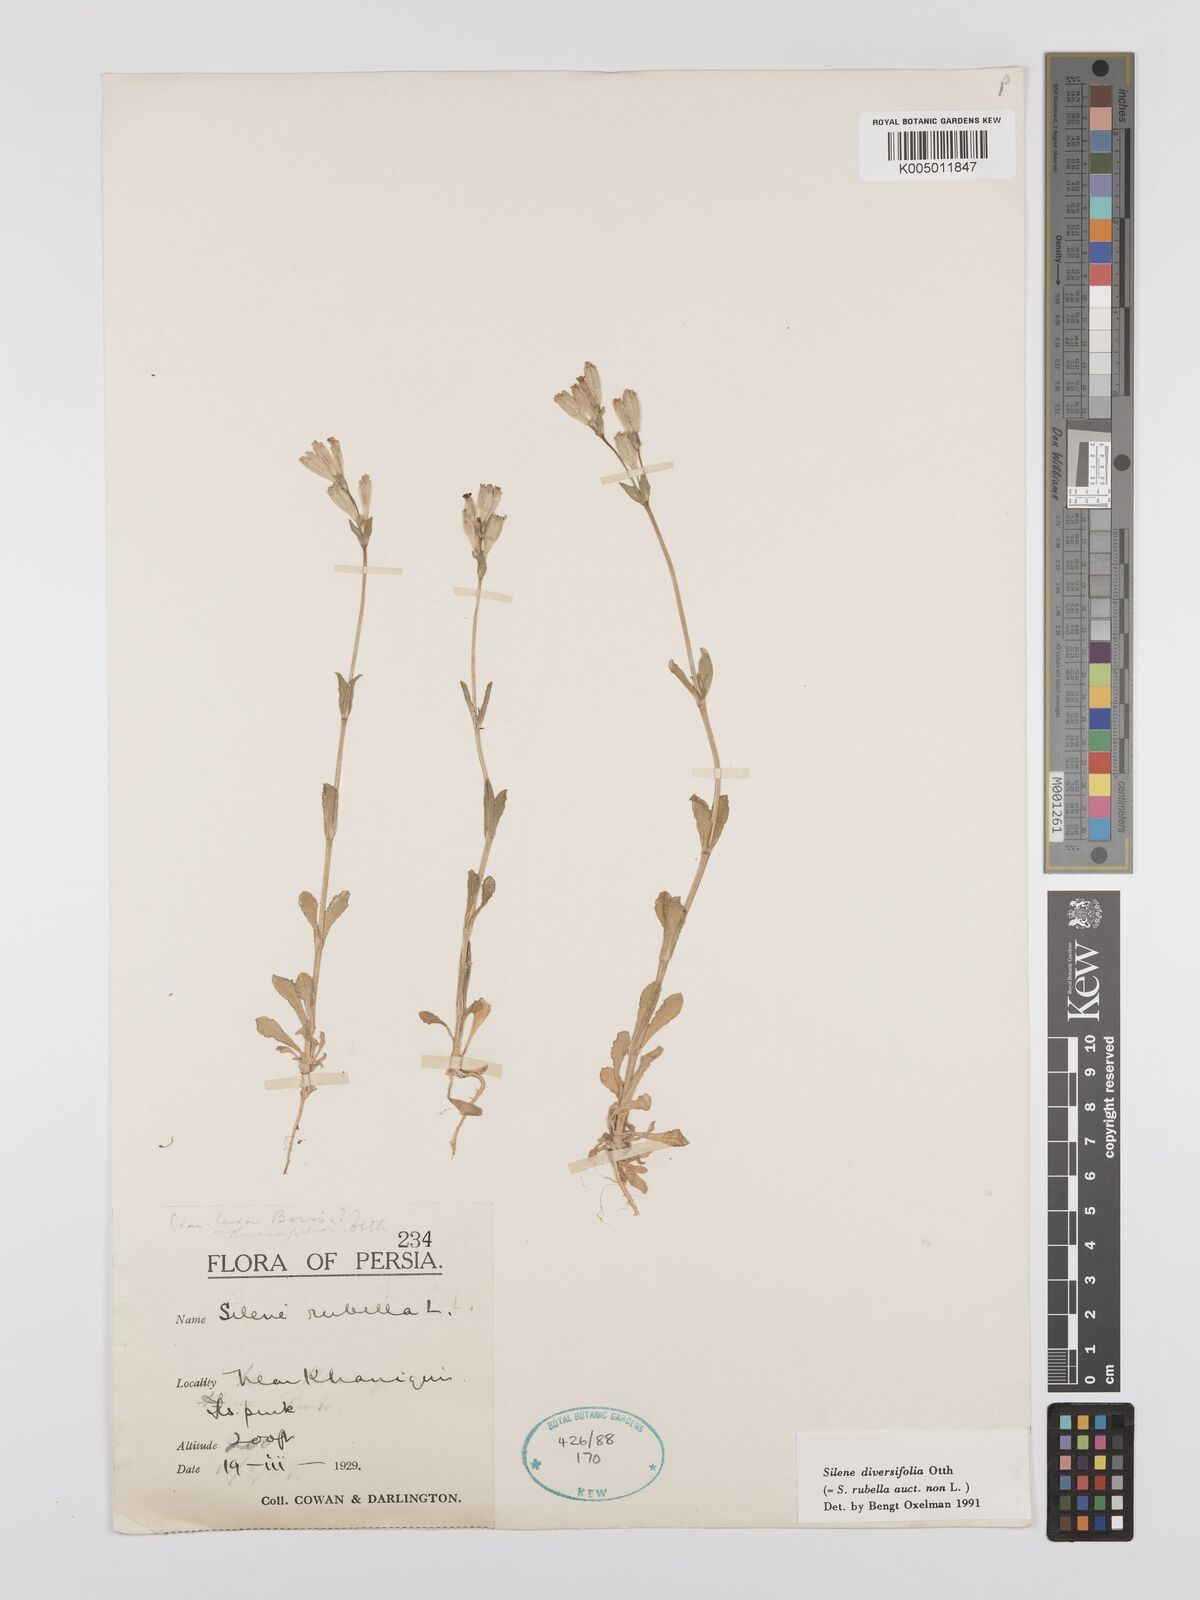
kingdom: Plantae
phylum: Tracheophyta
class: Magnoliopsida
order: Caryophyllales
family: Caryophyllaceae
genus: Silene
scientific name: Silene rubella
